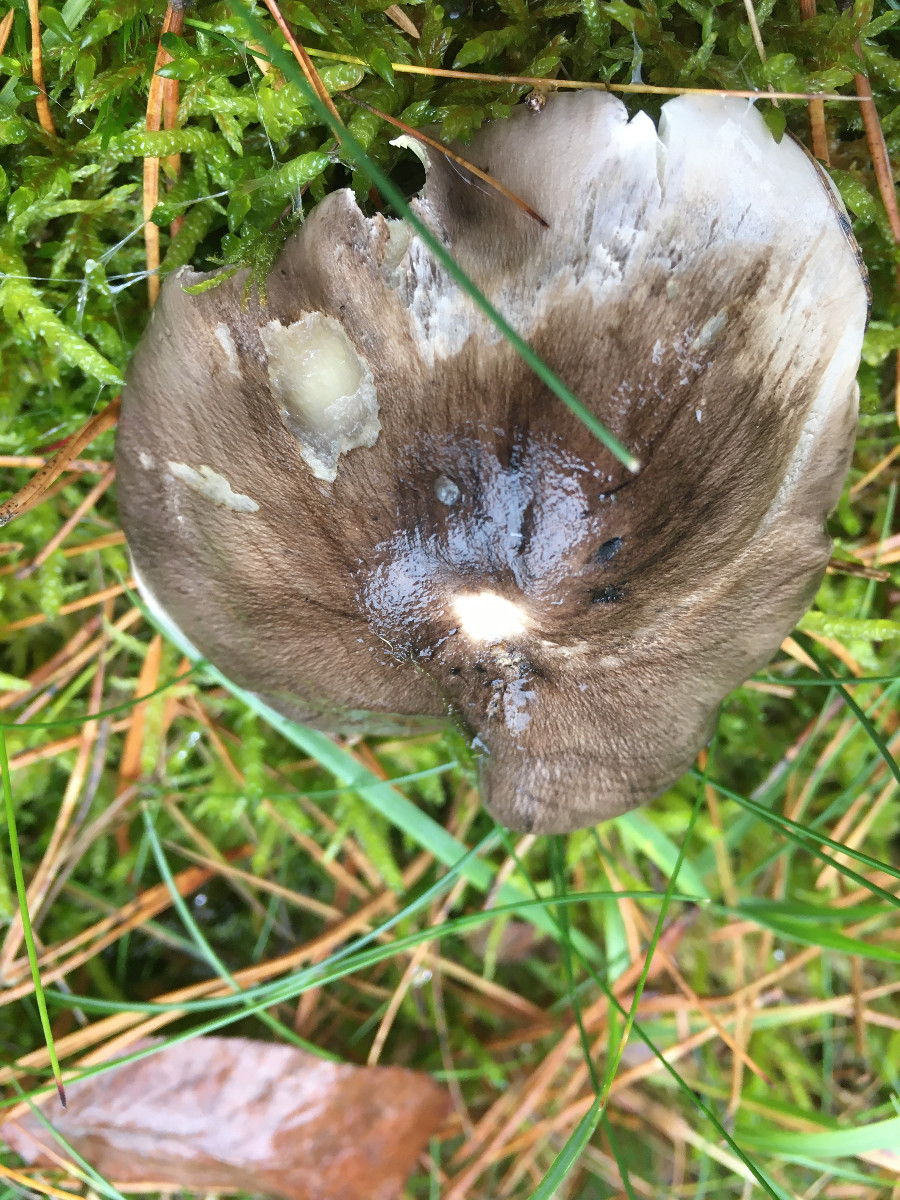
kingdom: Fungi
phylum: Basidiomycota
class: Agaricomycetes
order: Agaricales
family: Tricholomataceae
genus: Tricholoma
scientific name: Tricholoma portentosum
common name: grå ridderhat
